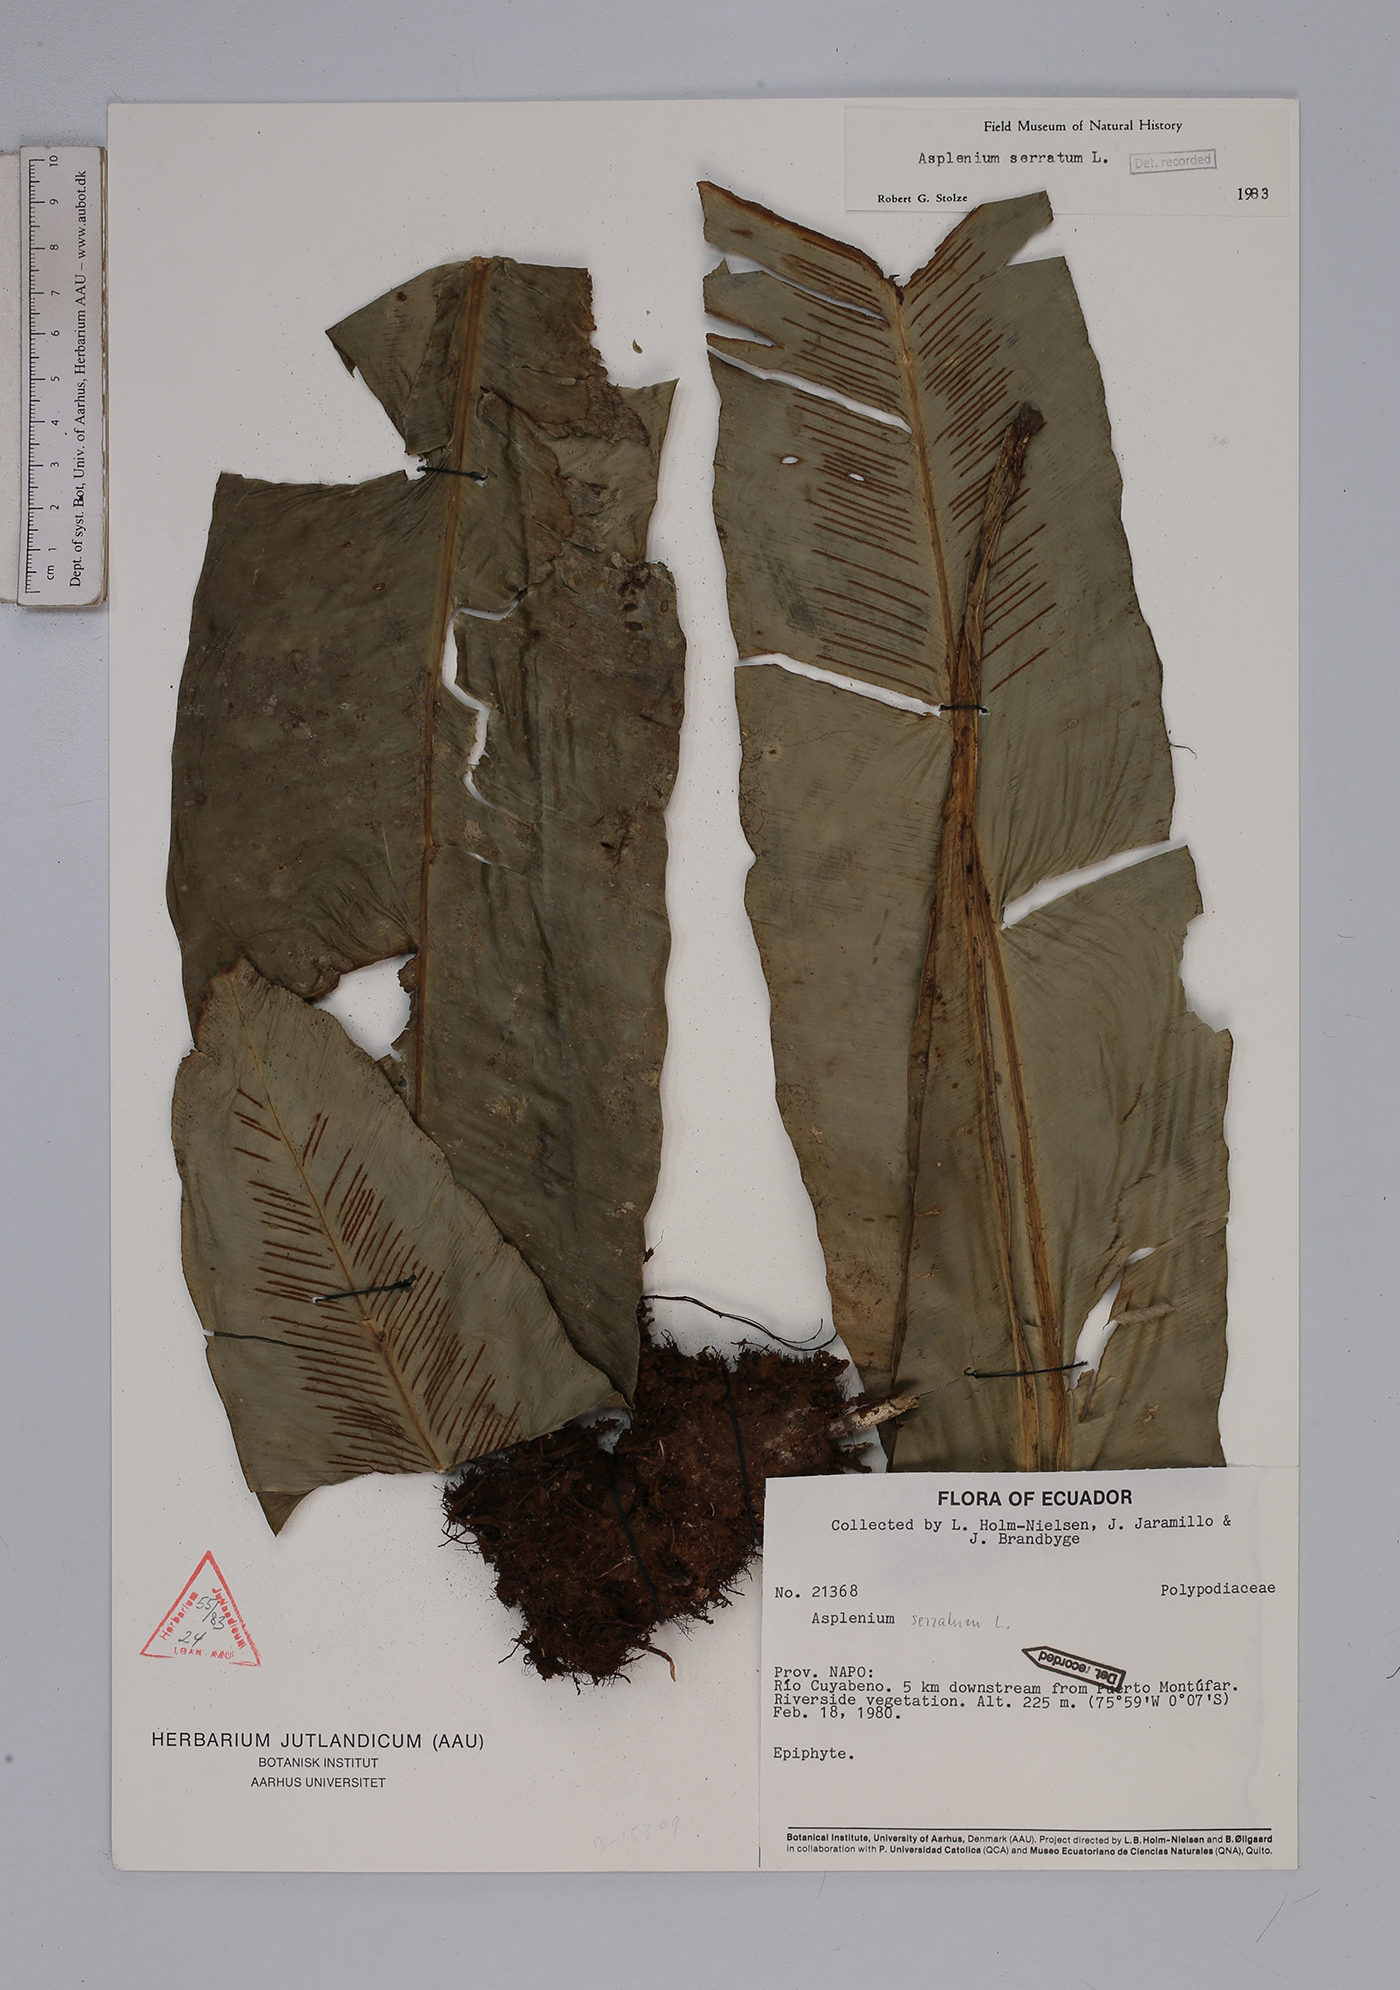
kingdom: Plantae
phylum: Tracheophyta
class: Polypodiopsida
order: Polypodiales
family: Aspleniaceae
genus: Asplenium
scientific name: Asplenium serratum
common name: Wild birdnest fern
